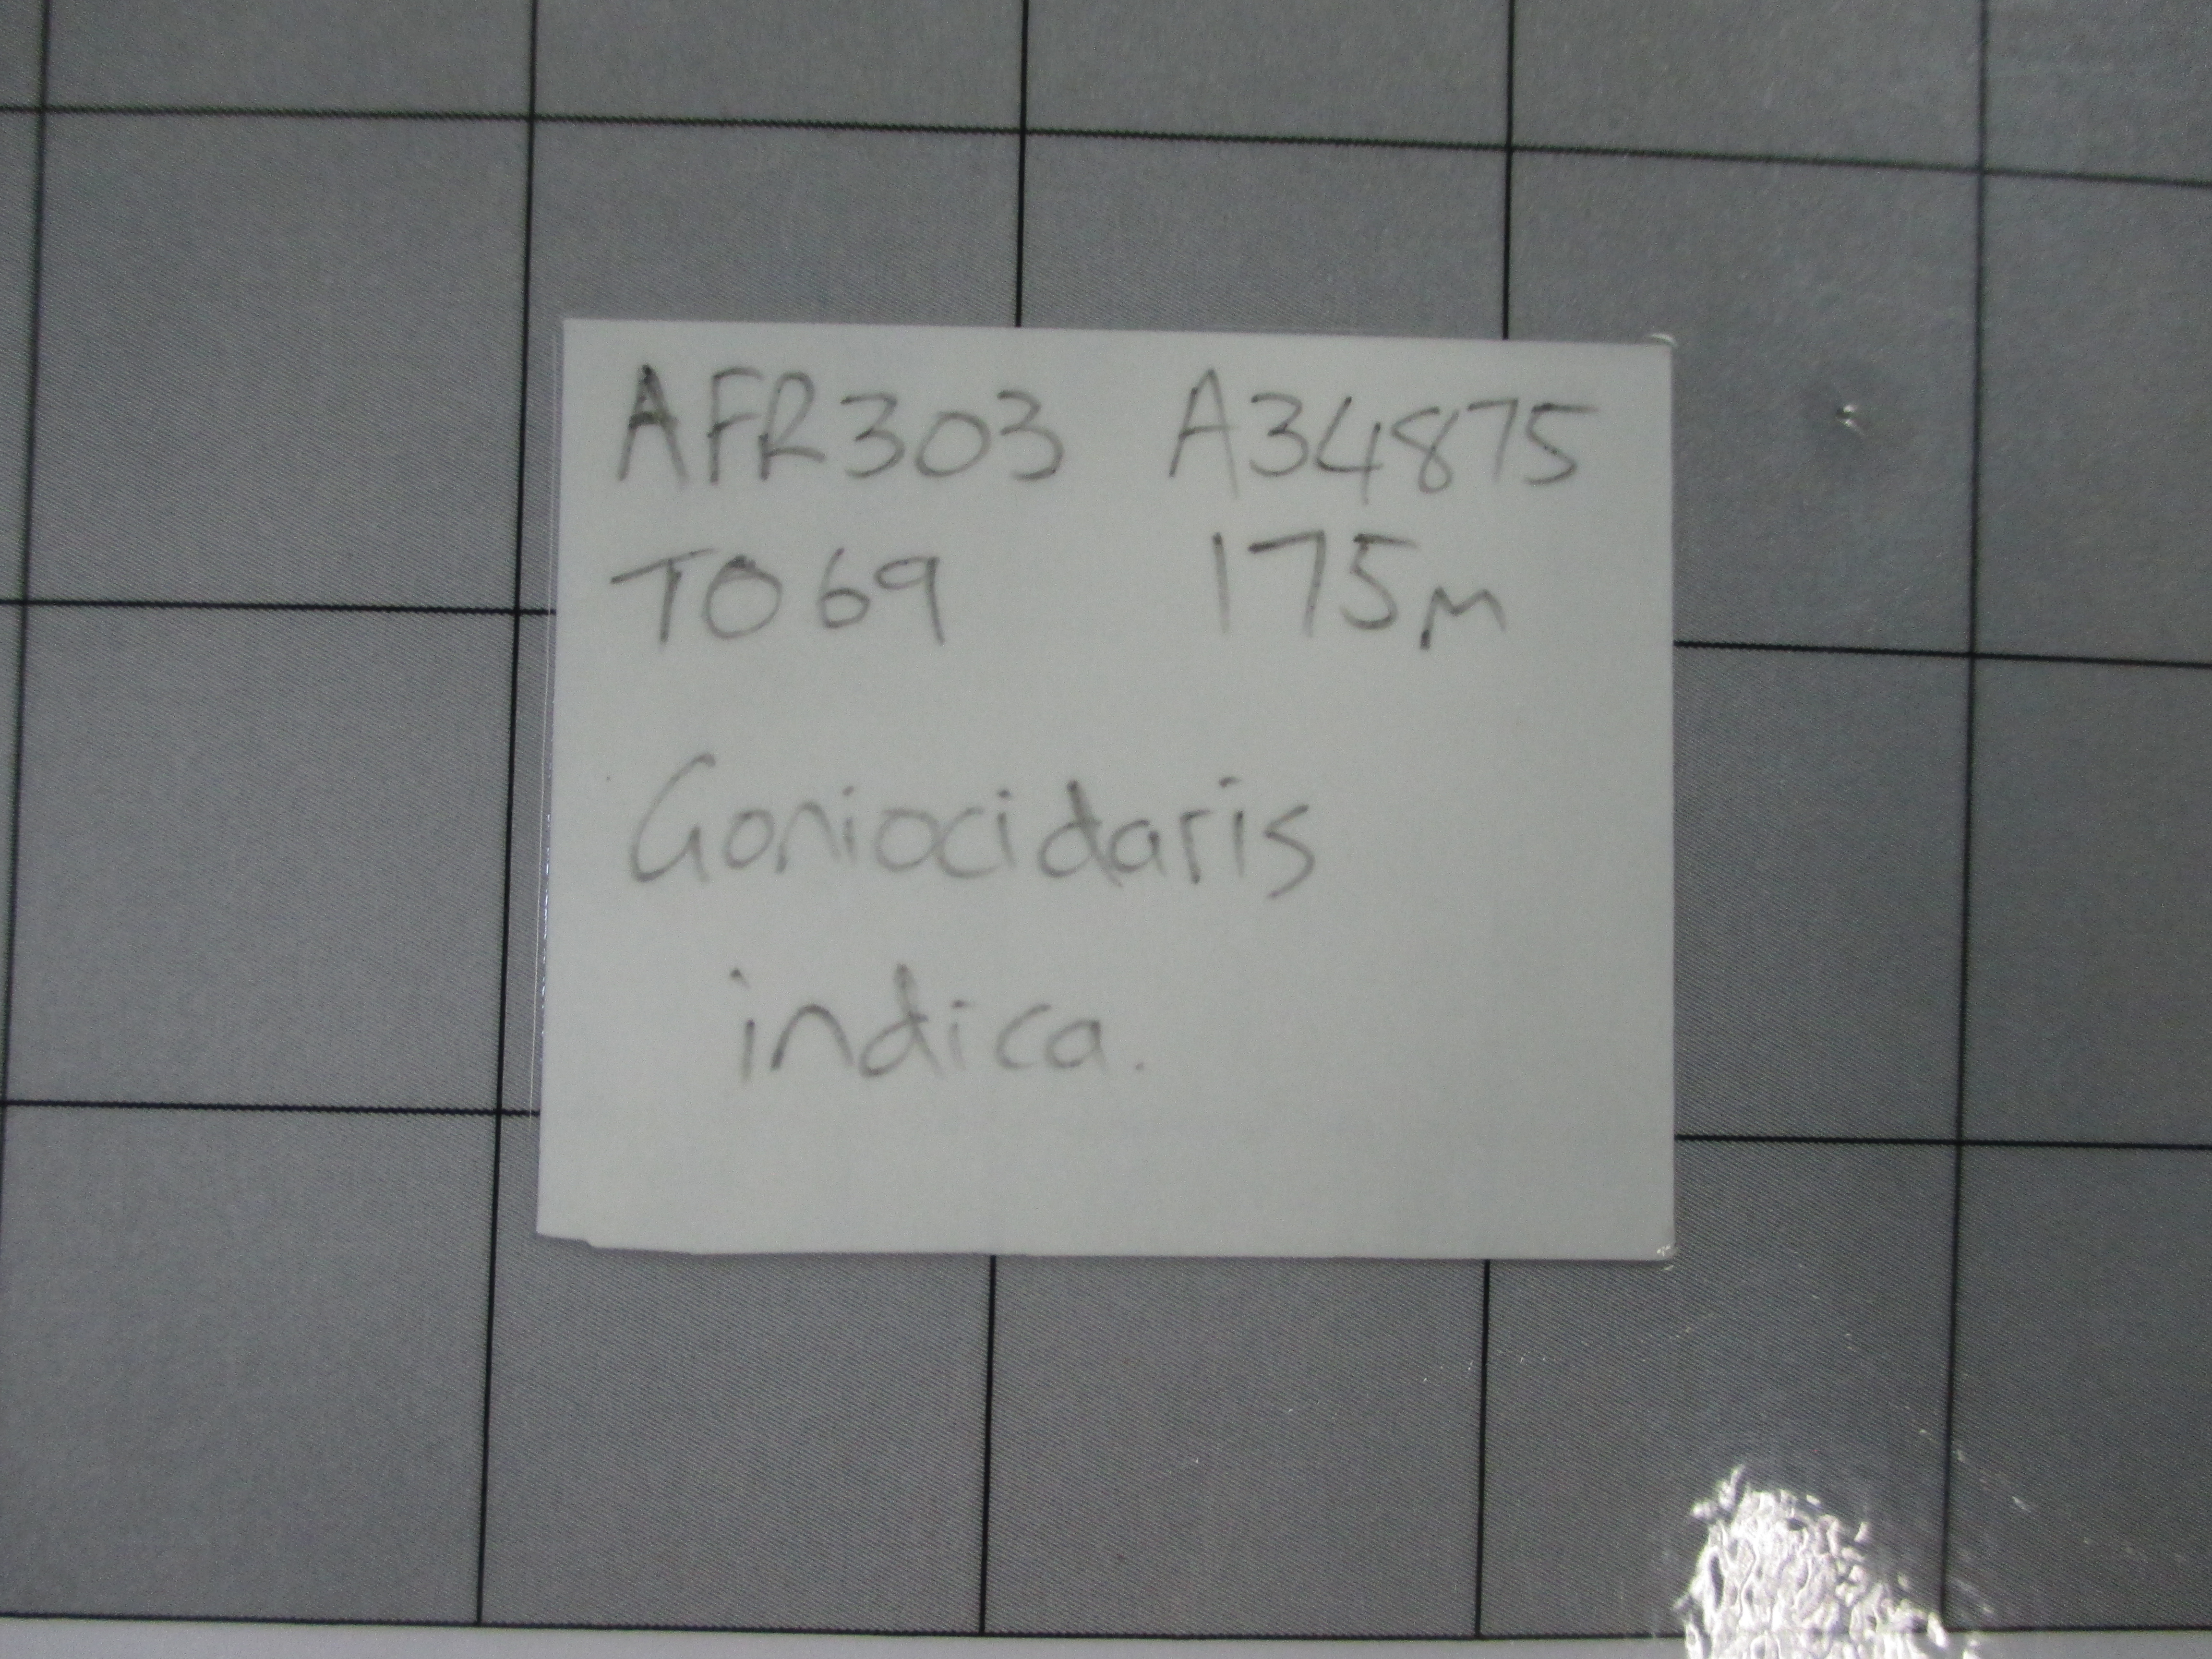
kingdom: Animalia
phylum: Echinodermata
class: Echinoidea
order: Cidaroida
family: Cidaridae
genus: Goniocidaris
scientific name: Goniocidaris indica
